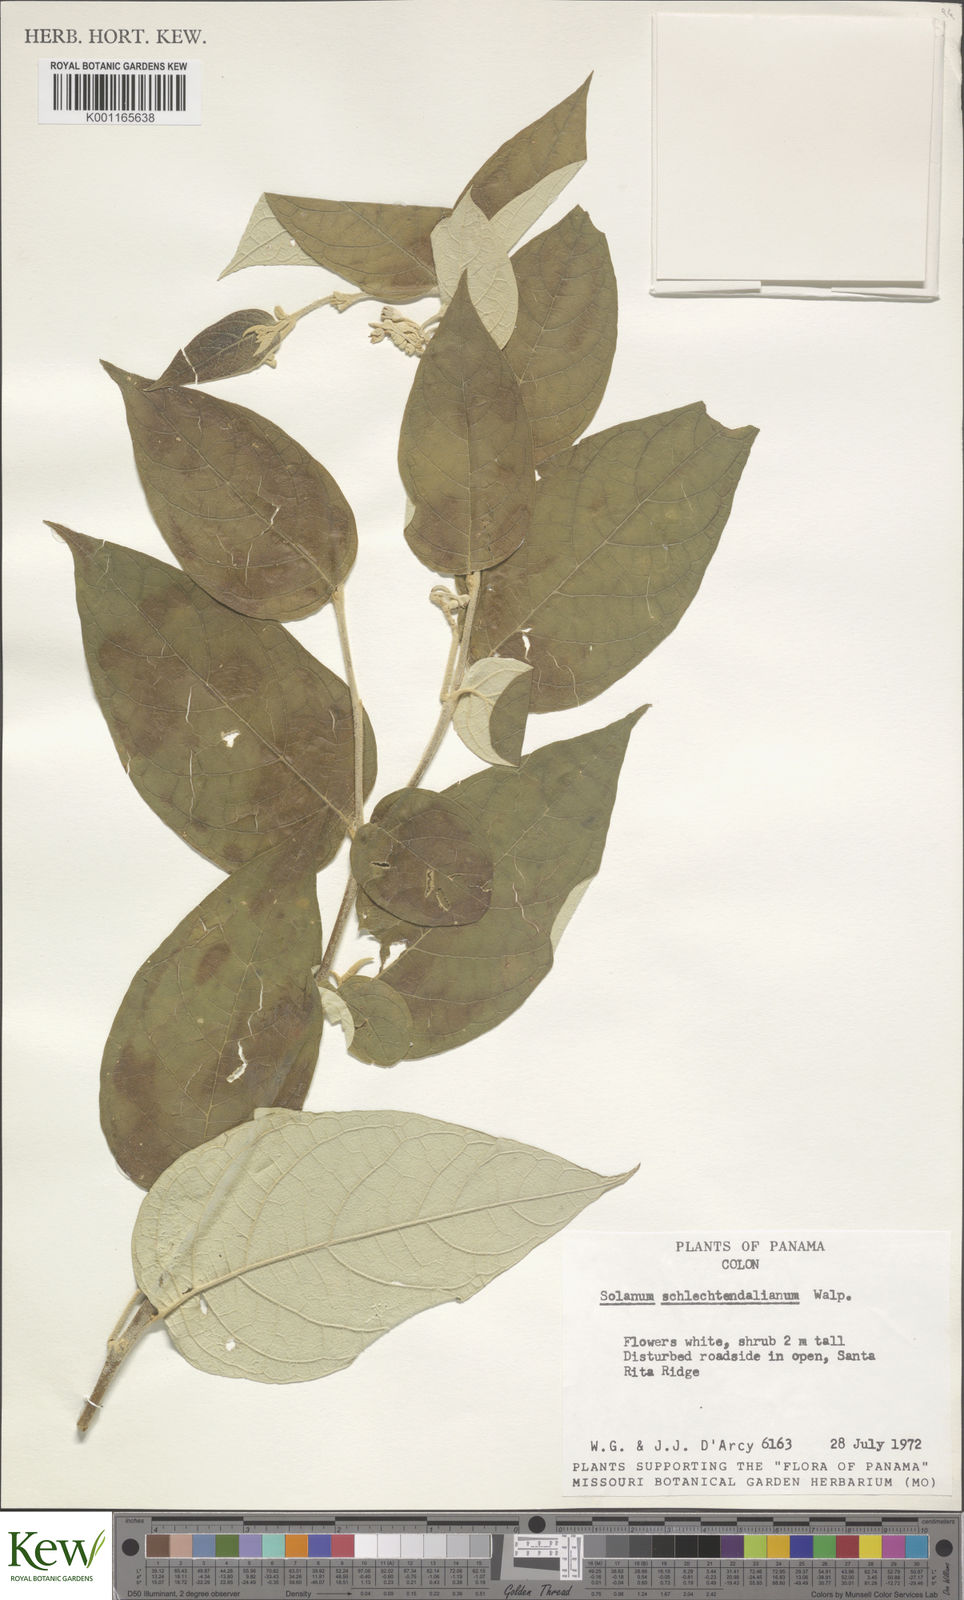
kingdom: Plantae
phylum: Tracheophyta
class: Magnoliopsida
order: Solanales
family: Solanaceae
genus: Solanum
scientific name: Solanum schlechtendalianum
